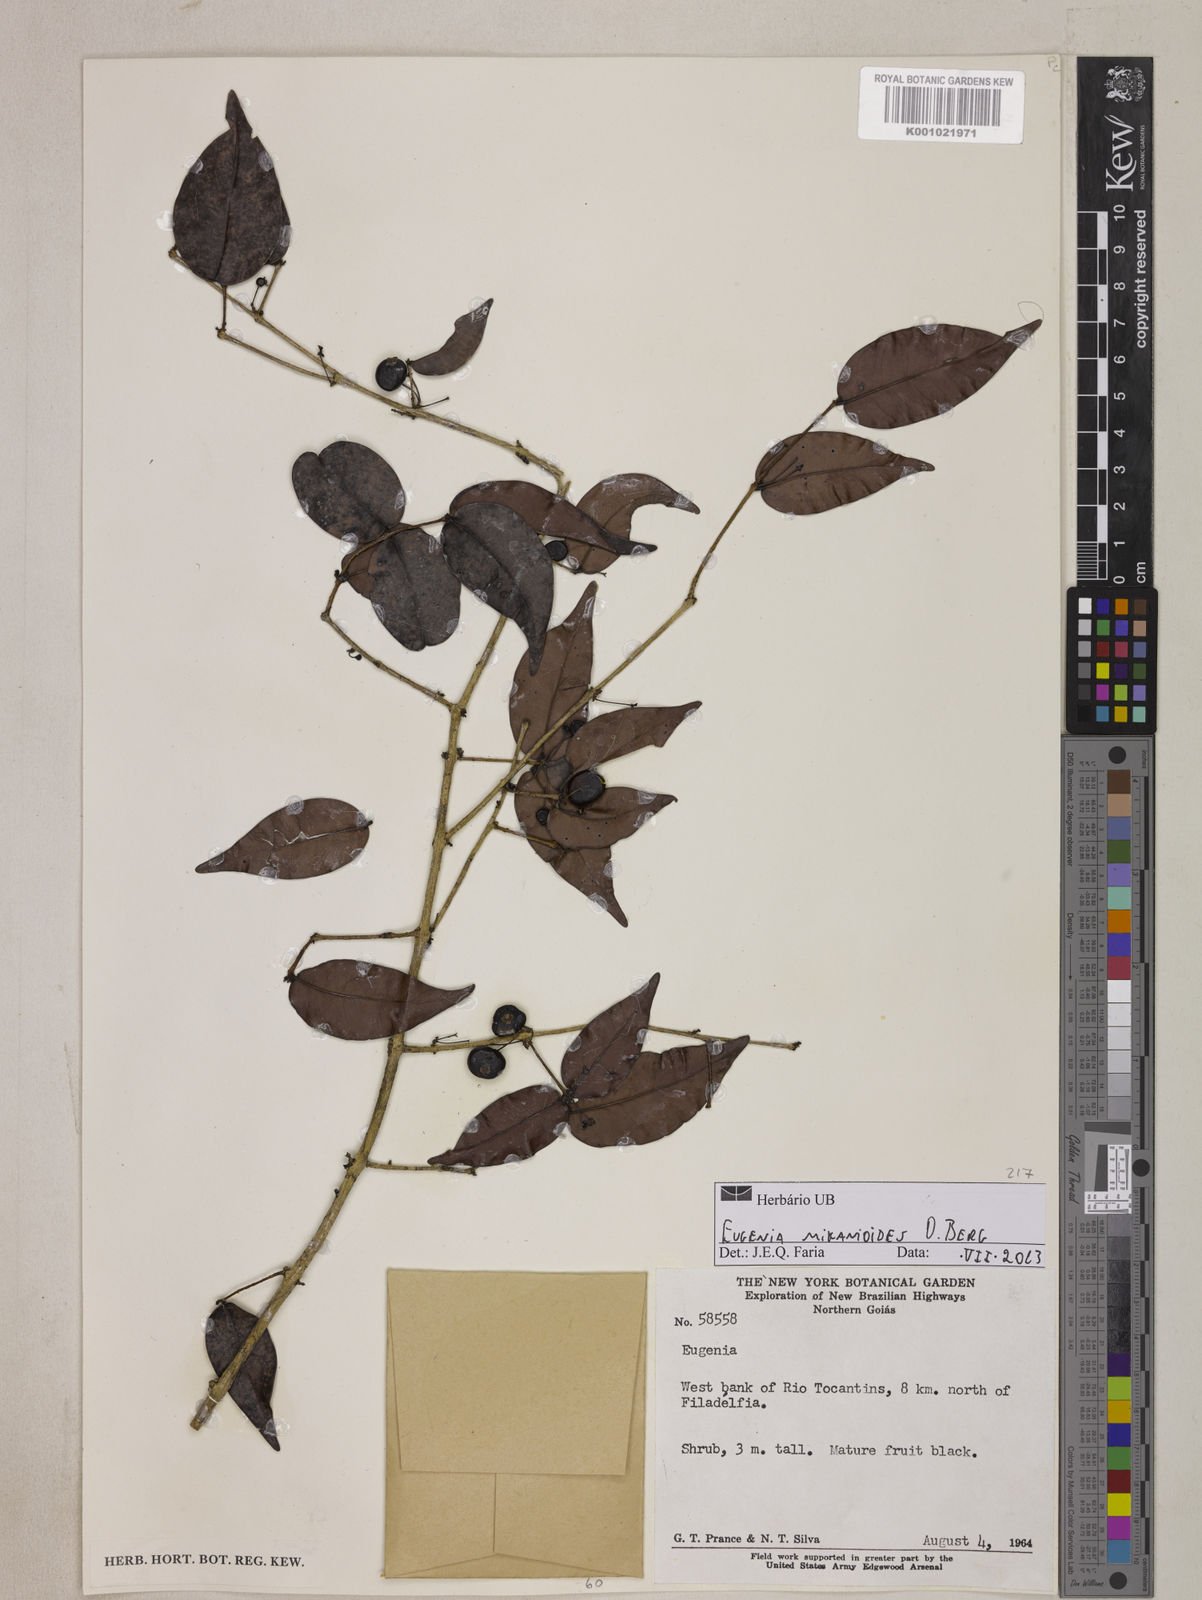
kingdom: Plantae
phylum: Tracheophyta
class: Magnoliopsida
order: Myrtales
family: Myrtaceae
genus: Eugenia
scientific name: Eugenia candolleana
